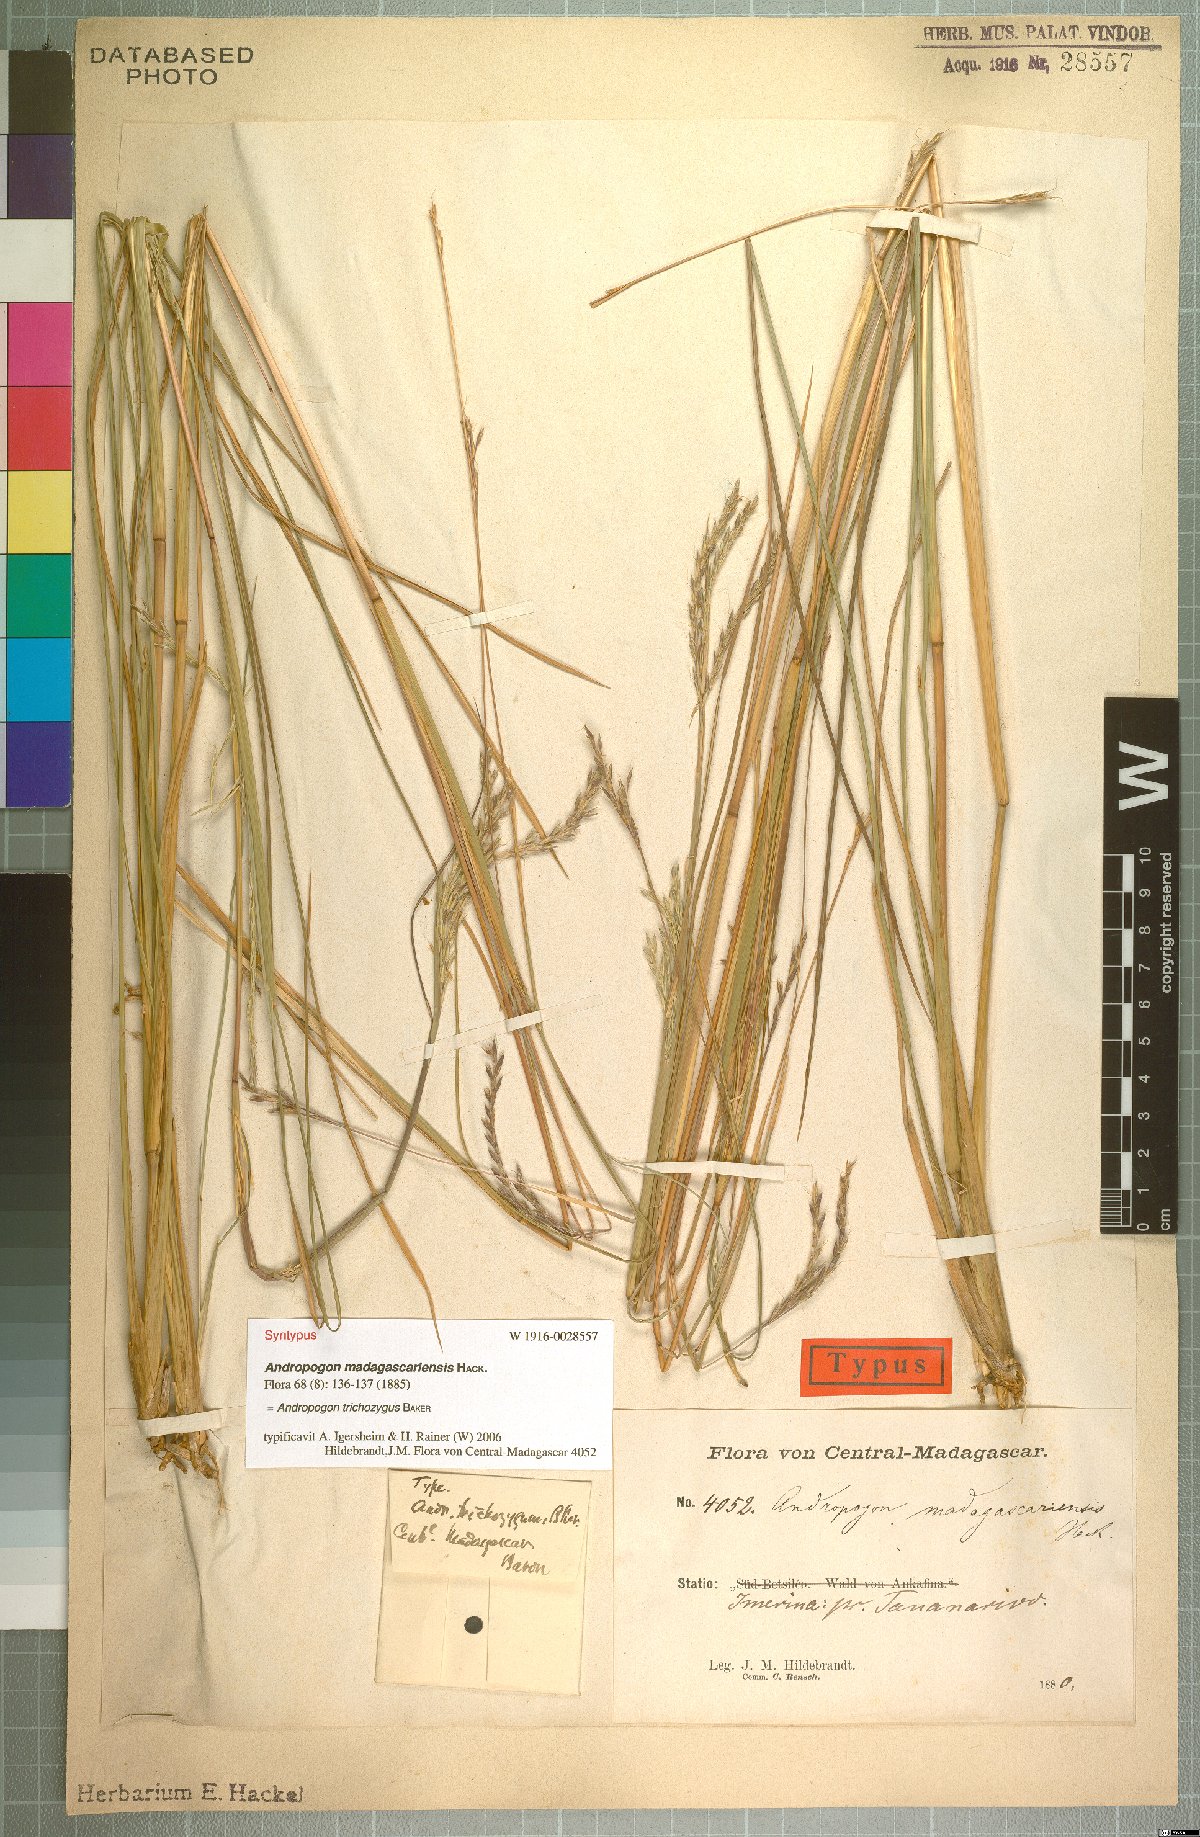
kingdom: Plantae
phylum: Tracheophyta
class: Liliopsida
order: Poales
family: Poaceae
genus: Andropogon
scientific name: Andropogon trichozygus
